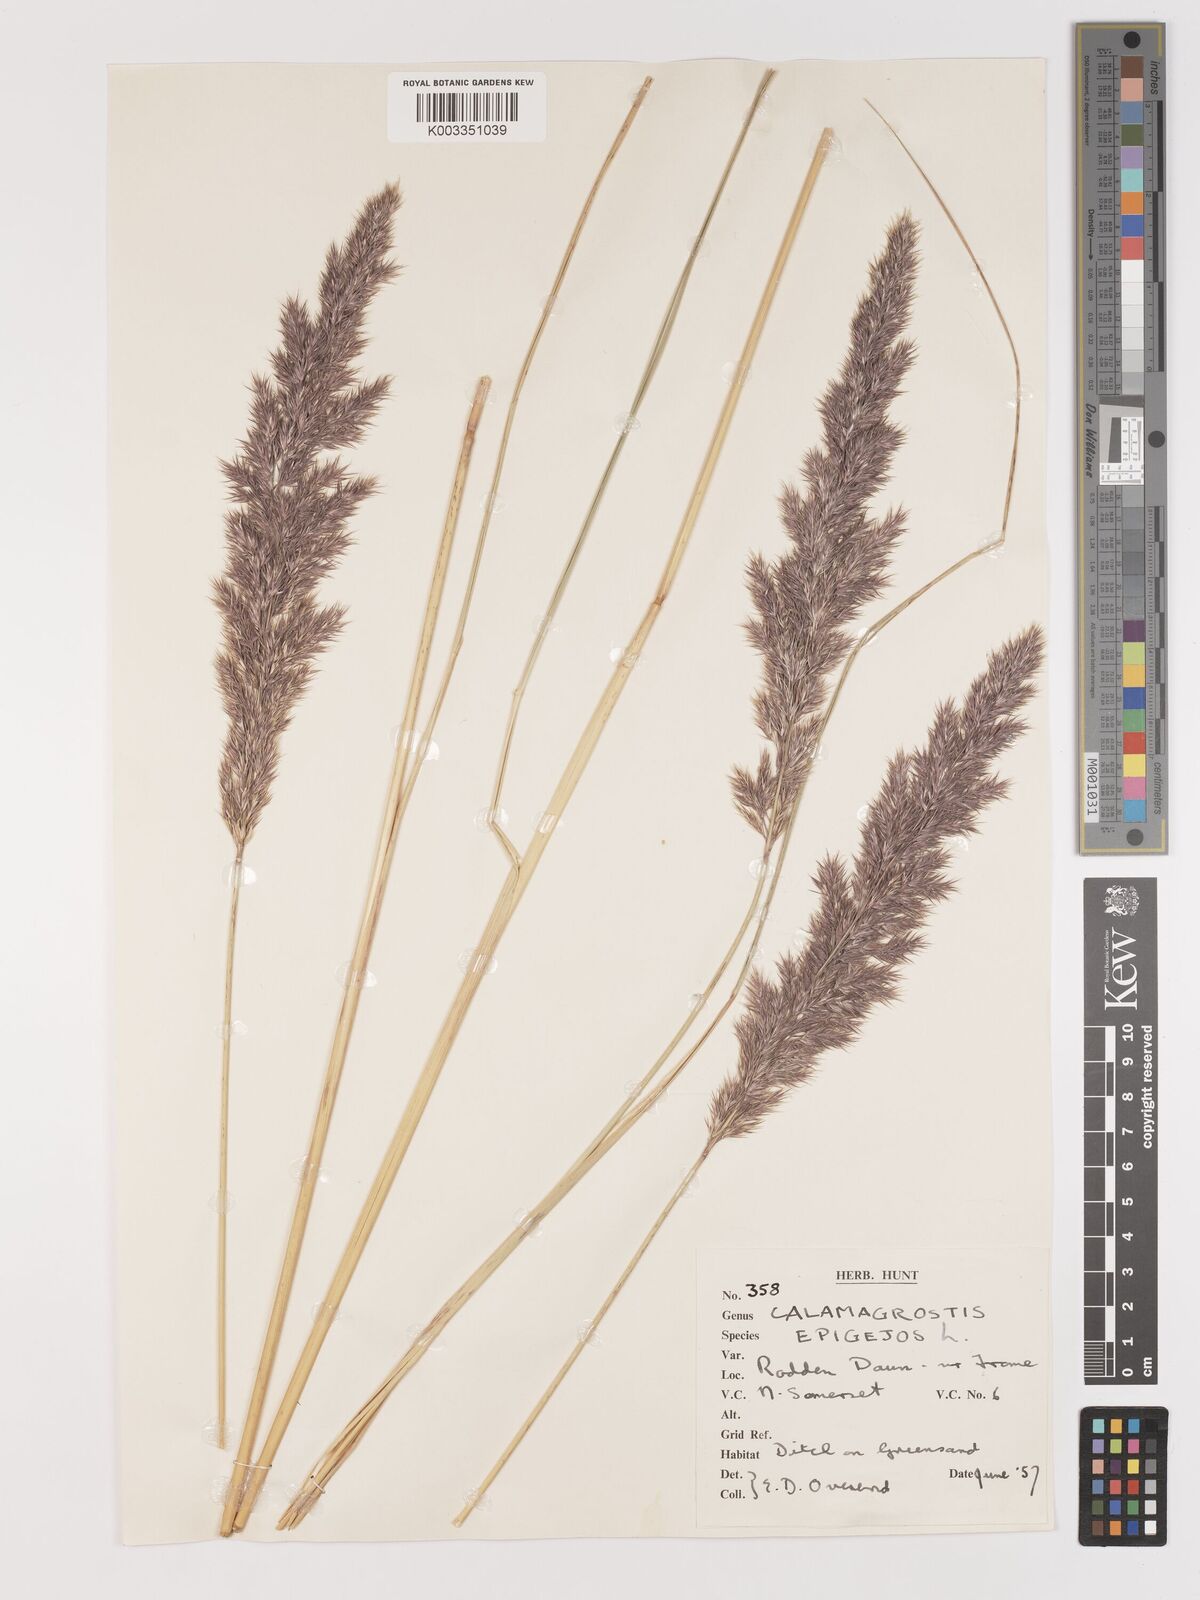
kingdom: Plantae
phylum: Tracheophyta
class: Liliopsida
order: Poales
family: Poaceae
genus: Calamagrostis
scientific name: Calamagrostis epigejos
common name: Wood small-reed
